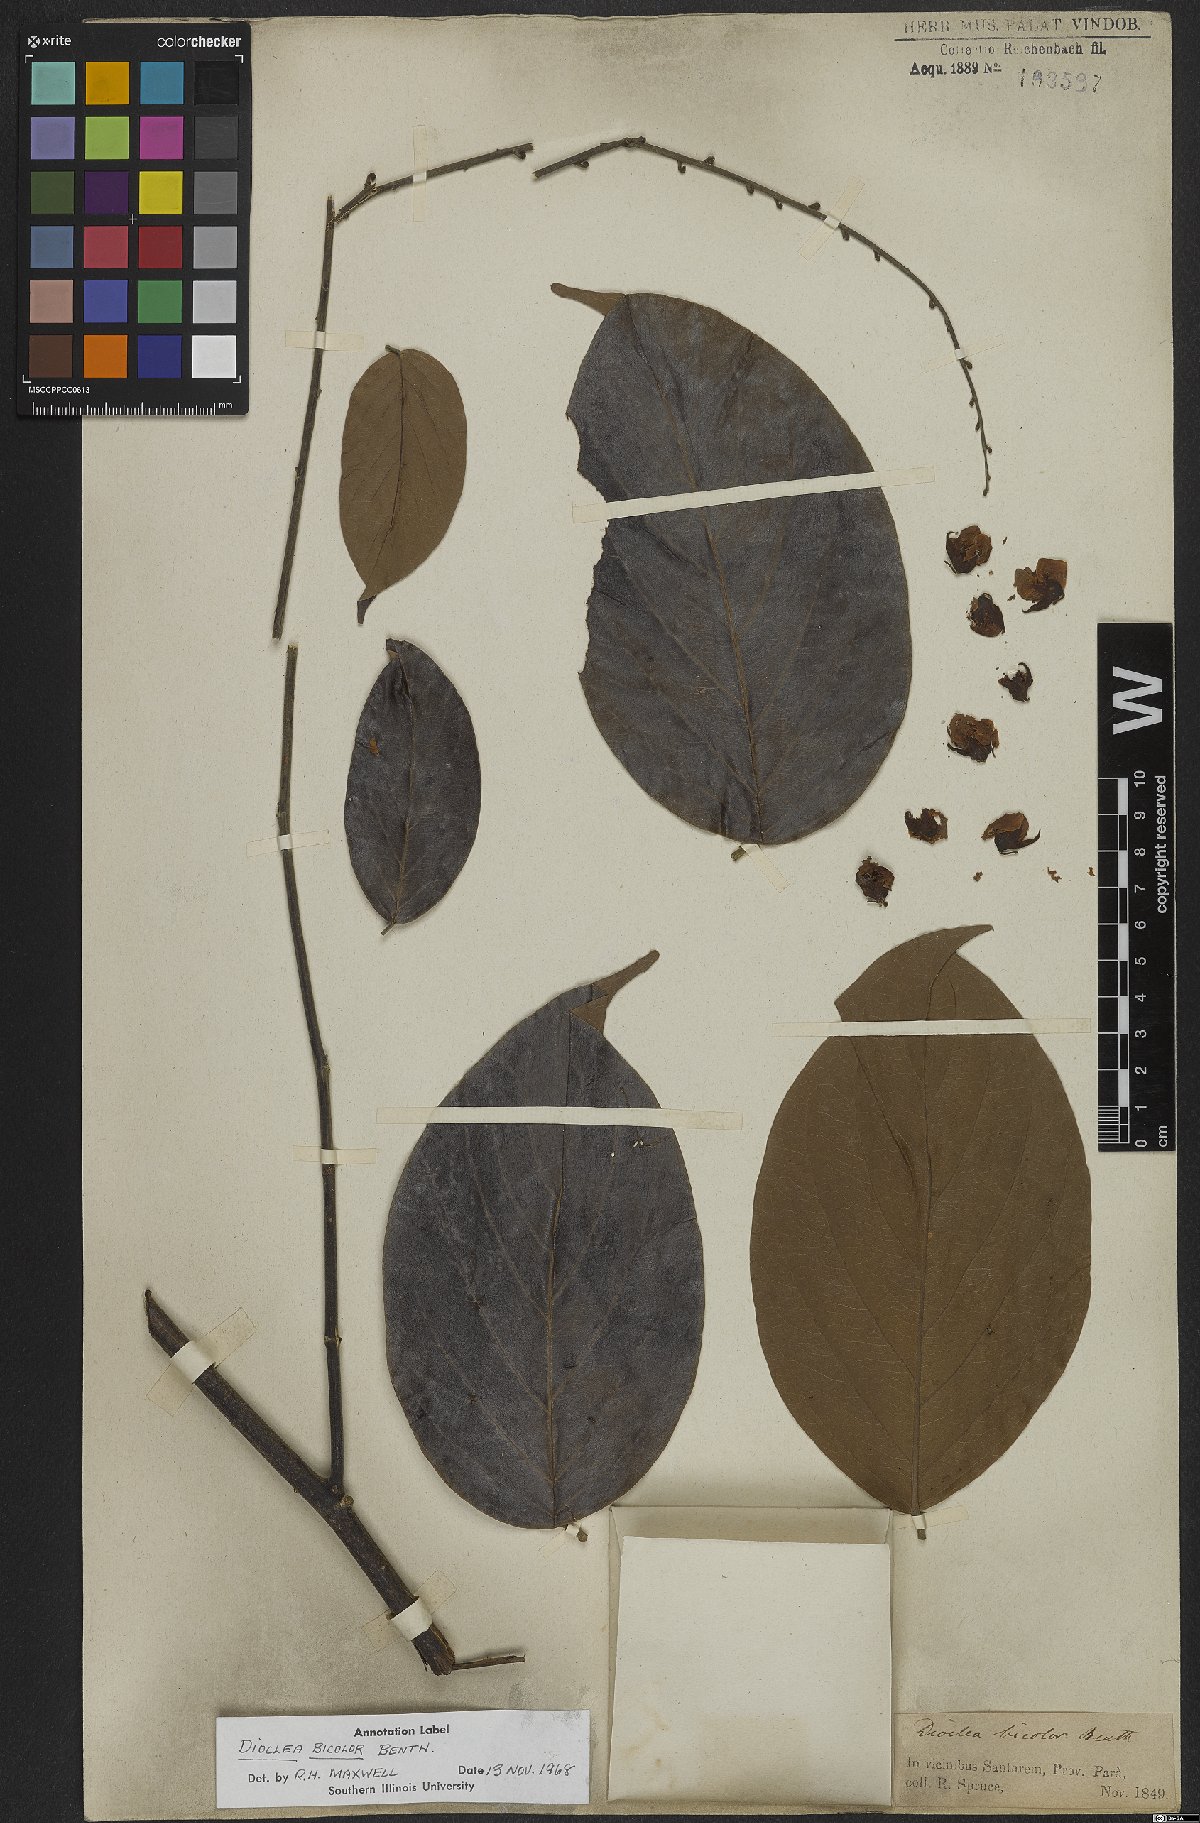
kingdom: Plantae
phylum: Tracheophyta
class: Magnoliopsida
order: Fabales
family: Fabaceae
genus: Macropsychanthus
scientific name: Macropsychanthus bicolor
